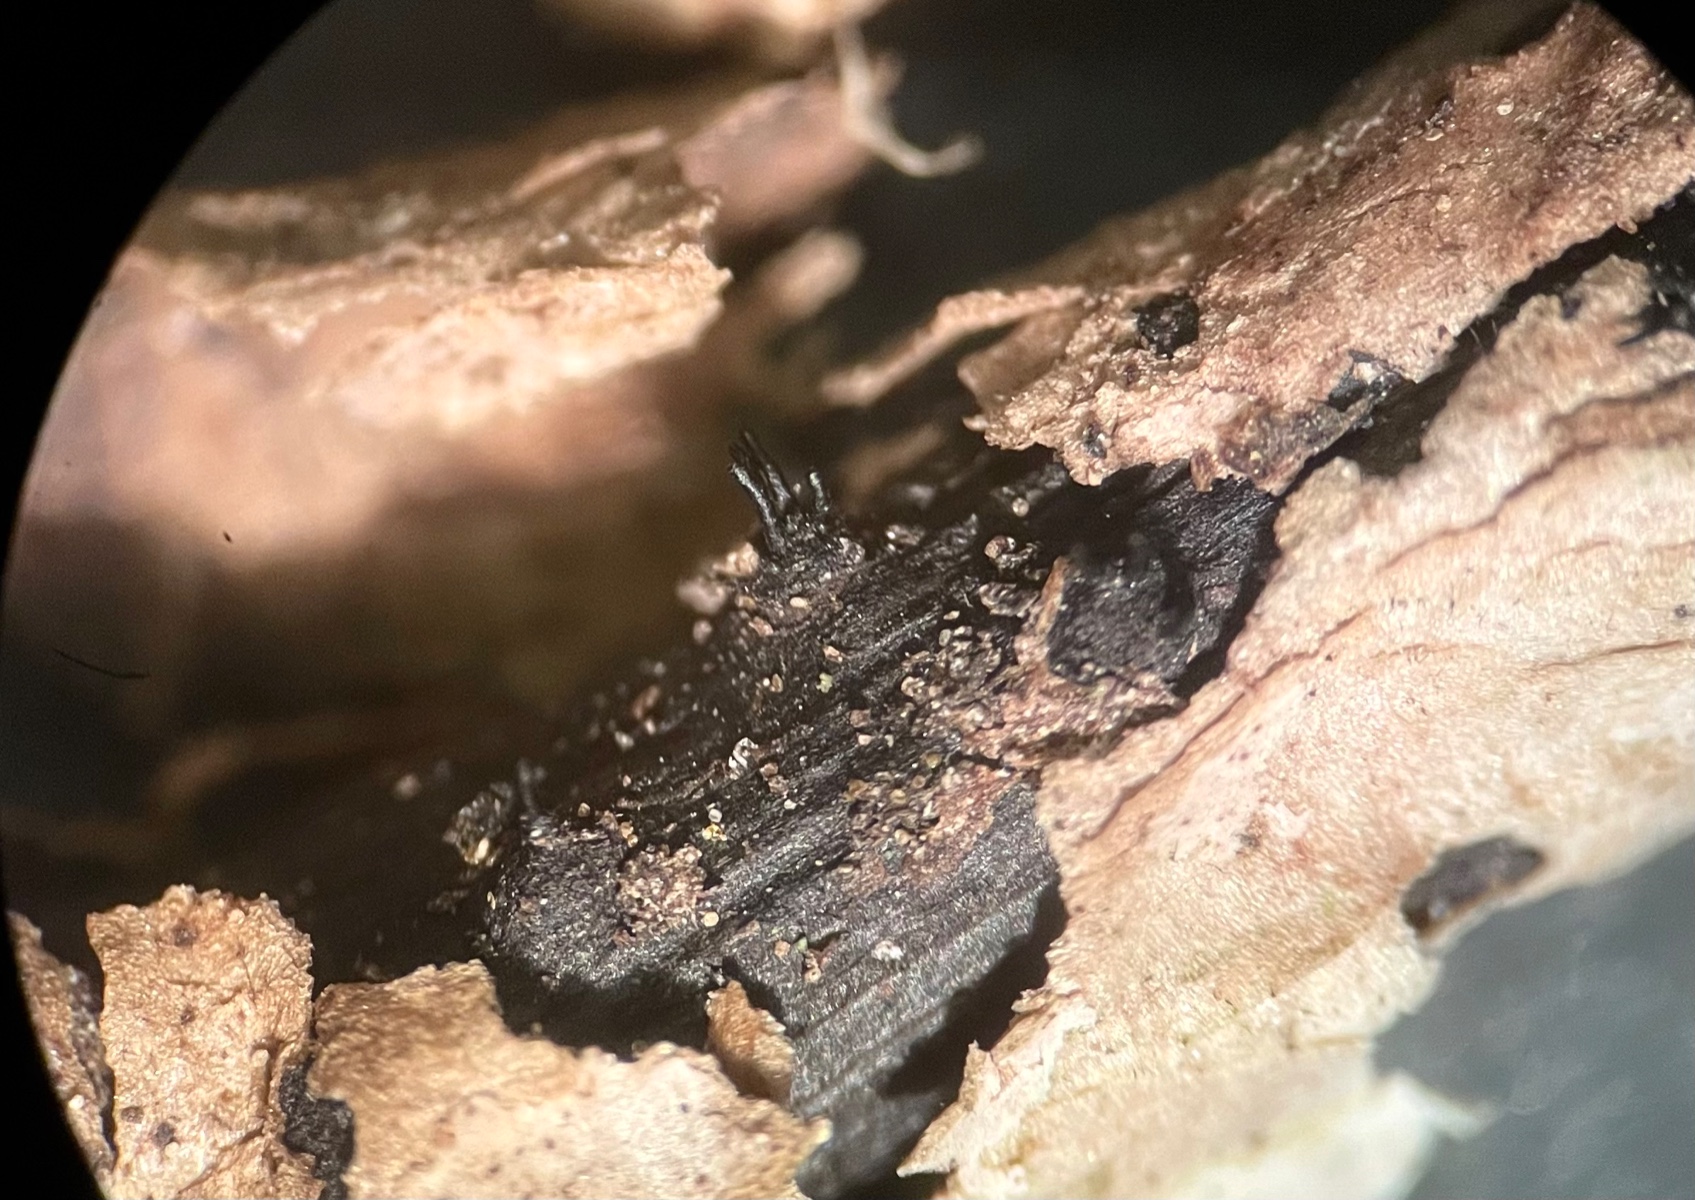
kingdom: Fungi
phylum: Ascomycota
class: Sordariomycetes
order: Diaporthales
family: Diaporthaceae
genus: Diaporthe
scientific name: Diaporthe pulla
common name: efeu-kulknippe
